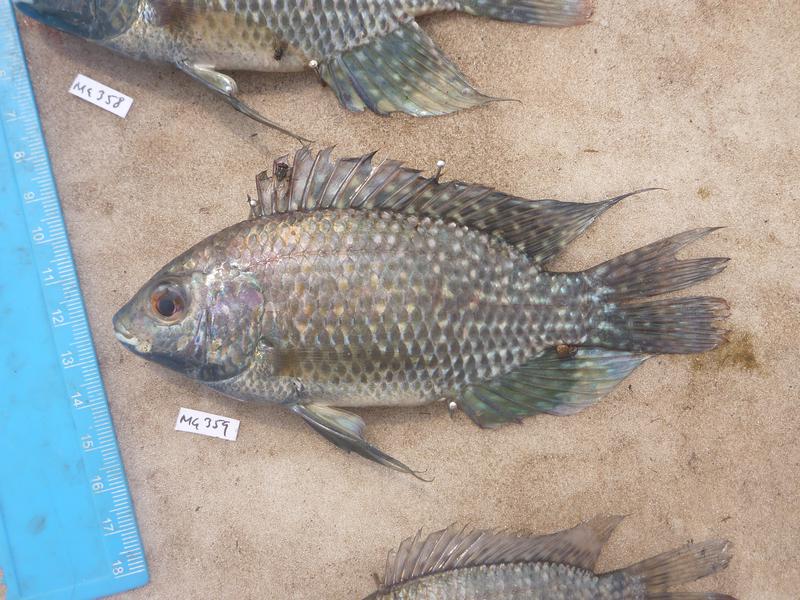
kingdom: Animalia
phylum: Chordata
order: Perciformes
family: Cichlidae
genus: Oreochromis
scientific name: Oreochromis leucostictus
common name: Blue spotted tilapia
